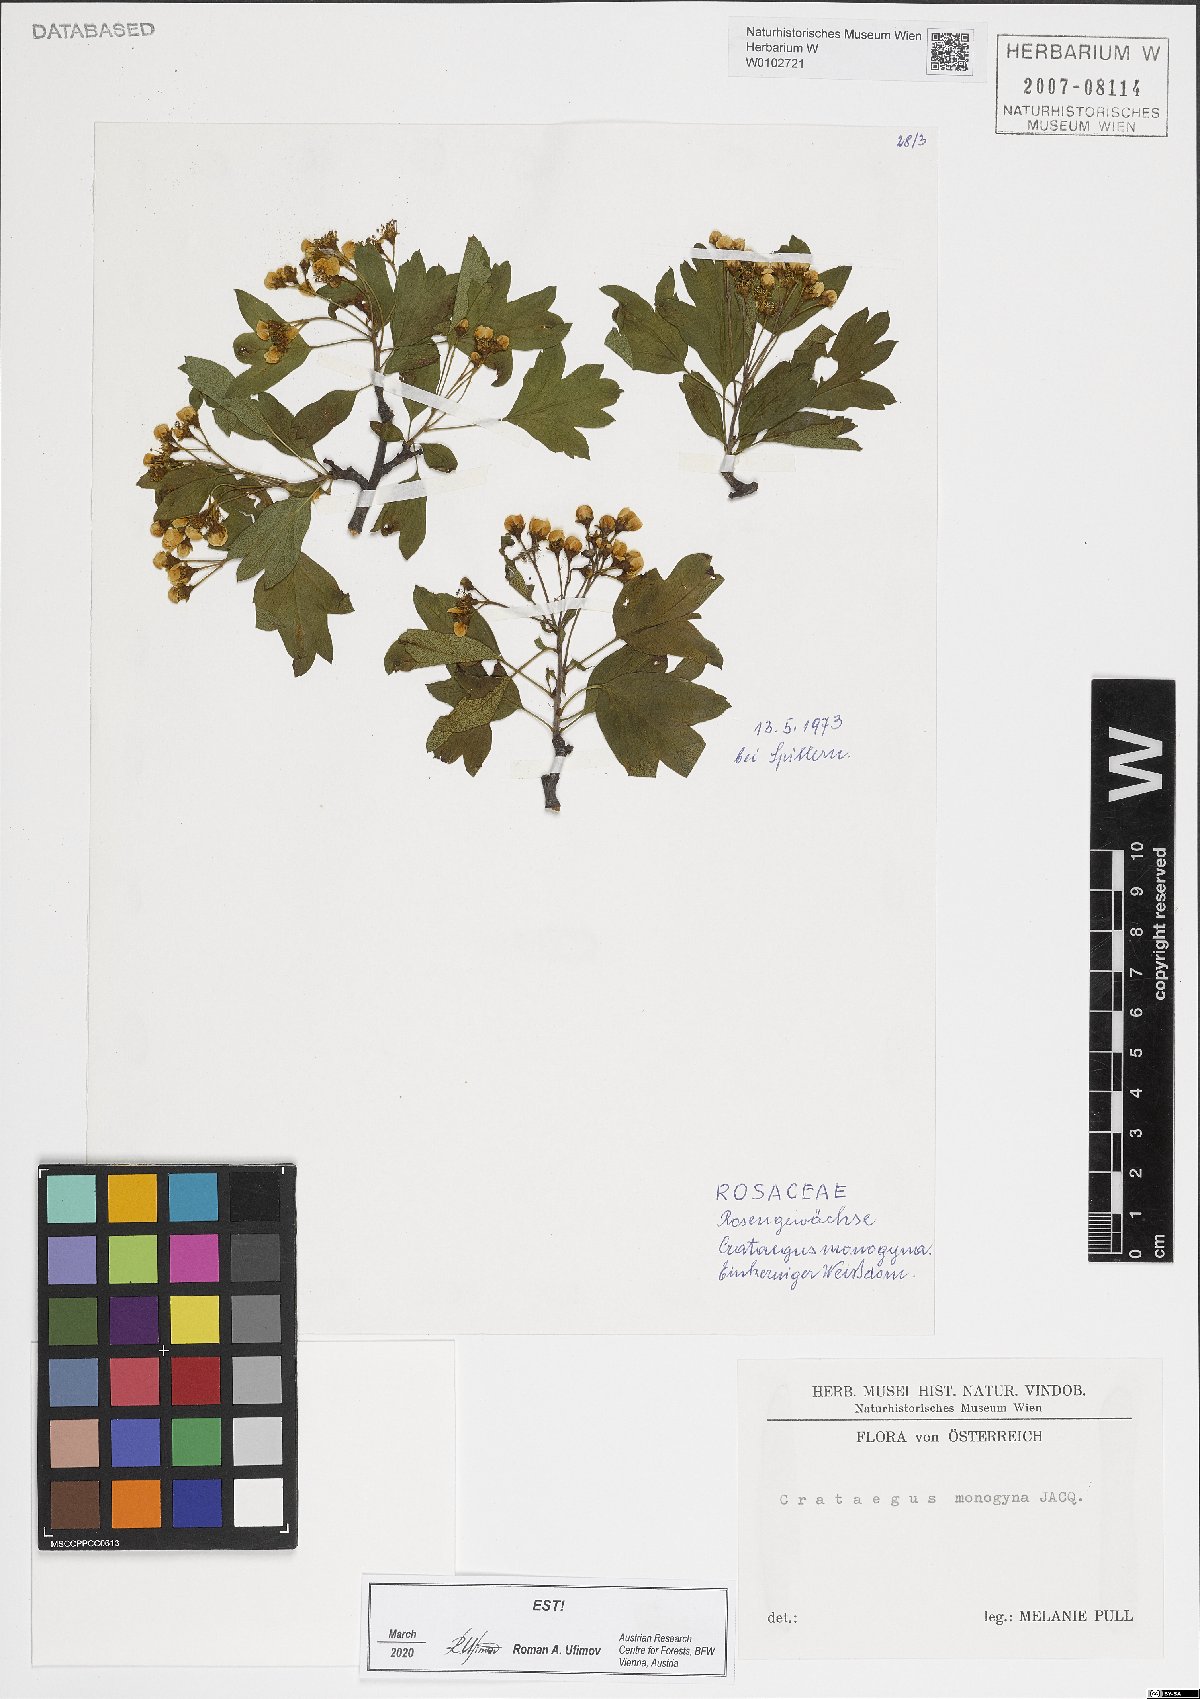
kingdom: Plantae
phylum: Tracheophyta
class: Magnoliopsida
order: Rosales
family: Rosaceae
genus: Crataegus
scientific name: Crataegus monogyna
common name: Hawthorn
